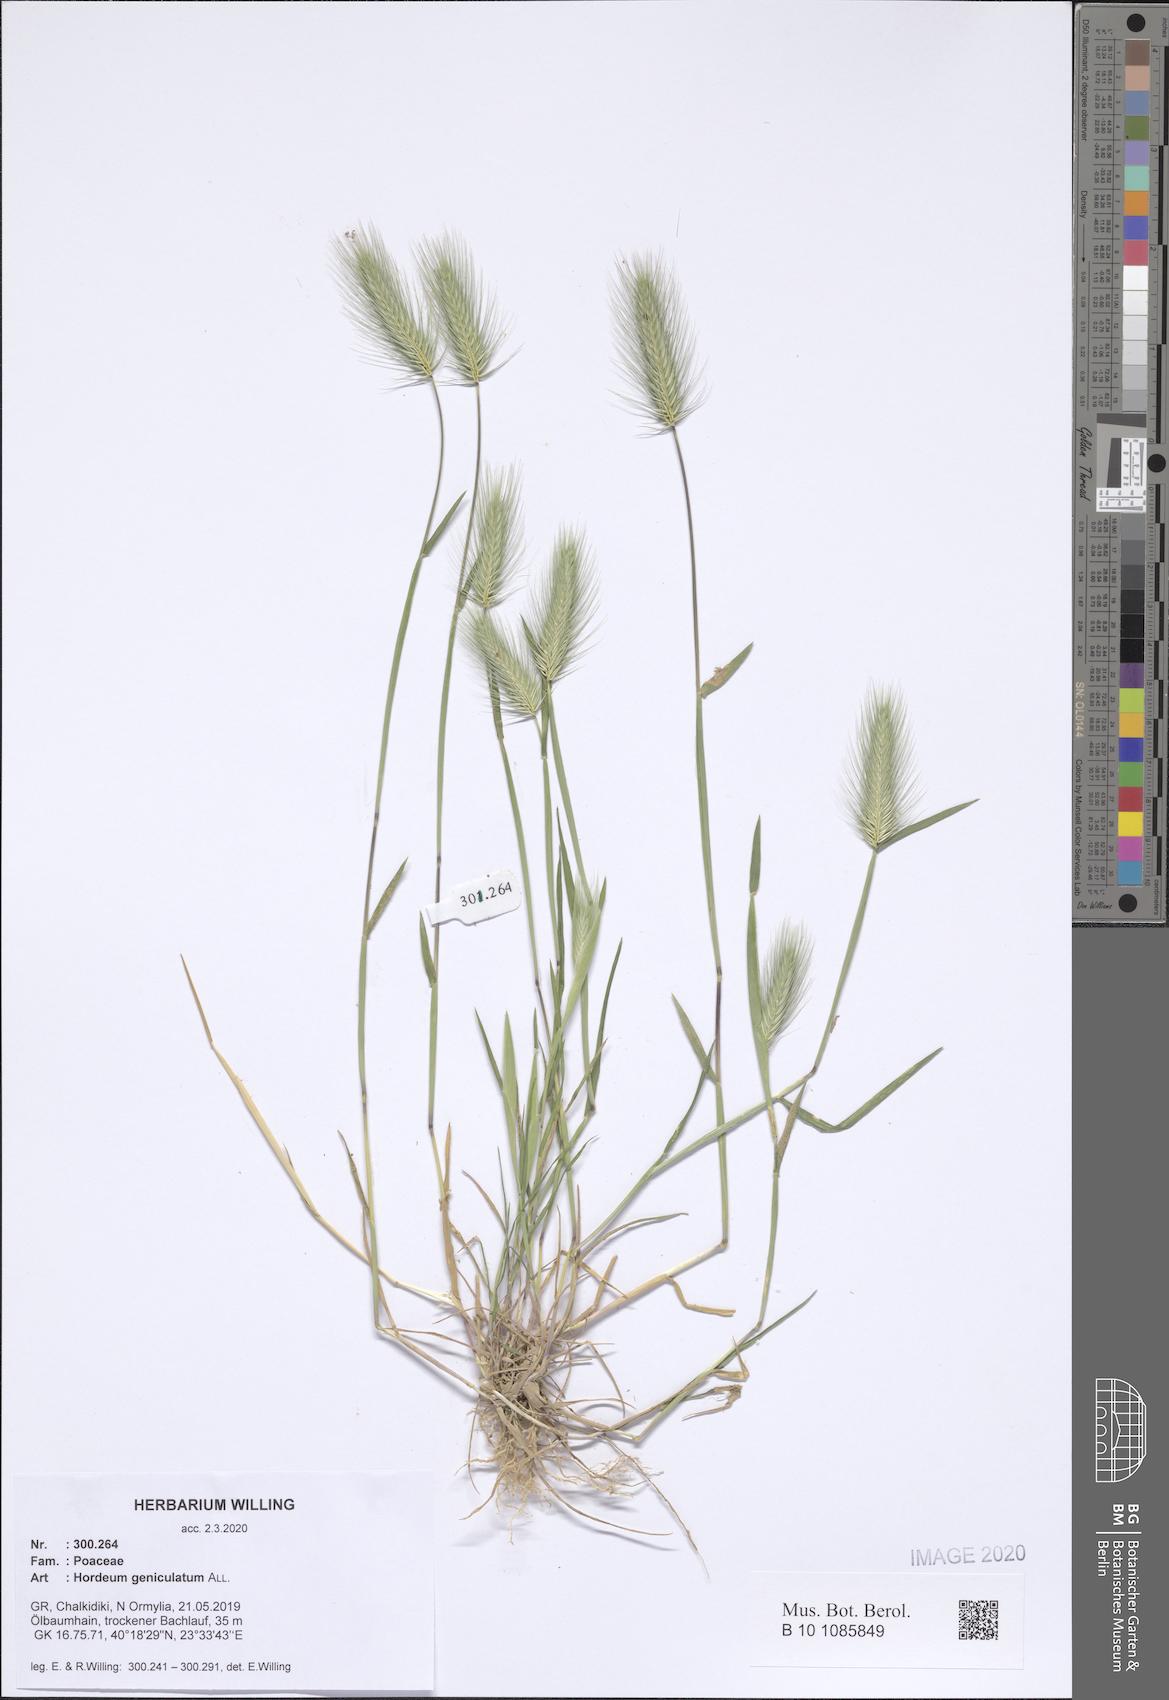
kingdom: Plantae
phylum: Tracheophyta
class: Liliopsida
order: Poales
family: Poaceae
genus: Hordeum
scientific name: Hordeum marinum
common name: Sea barley
